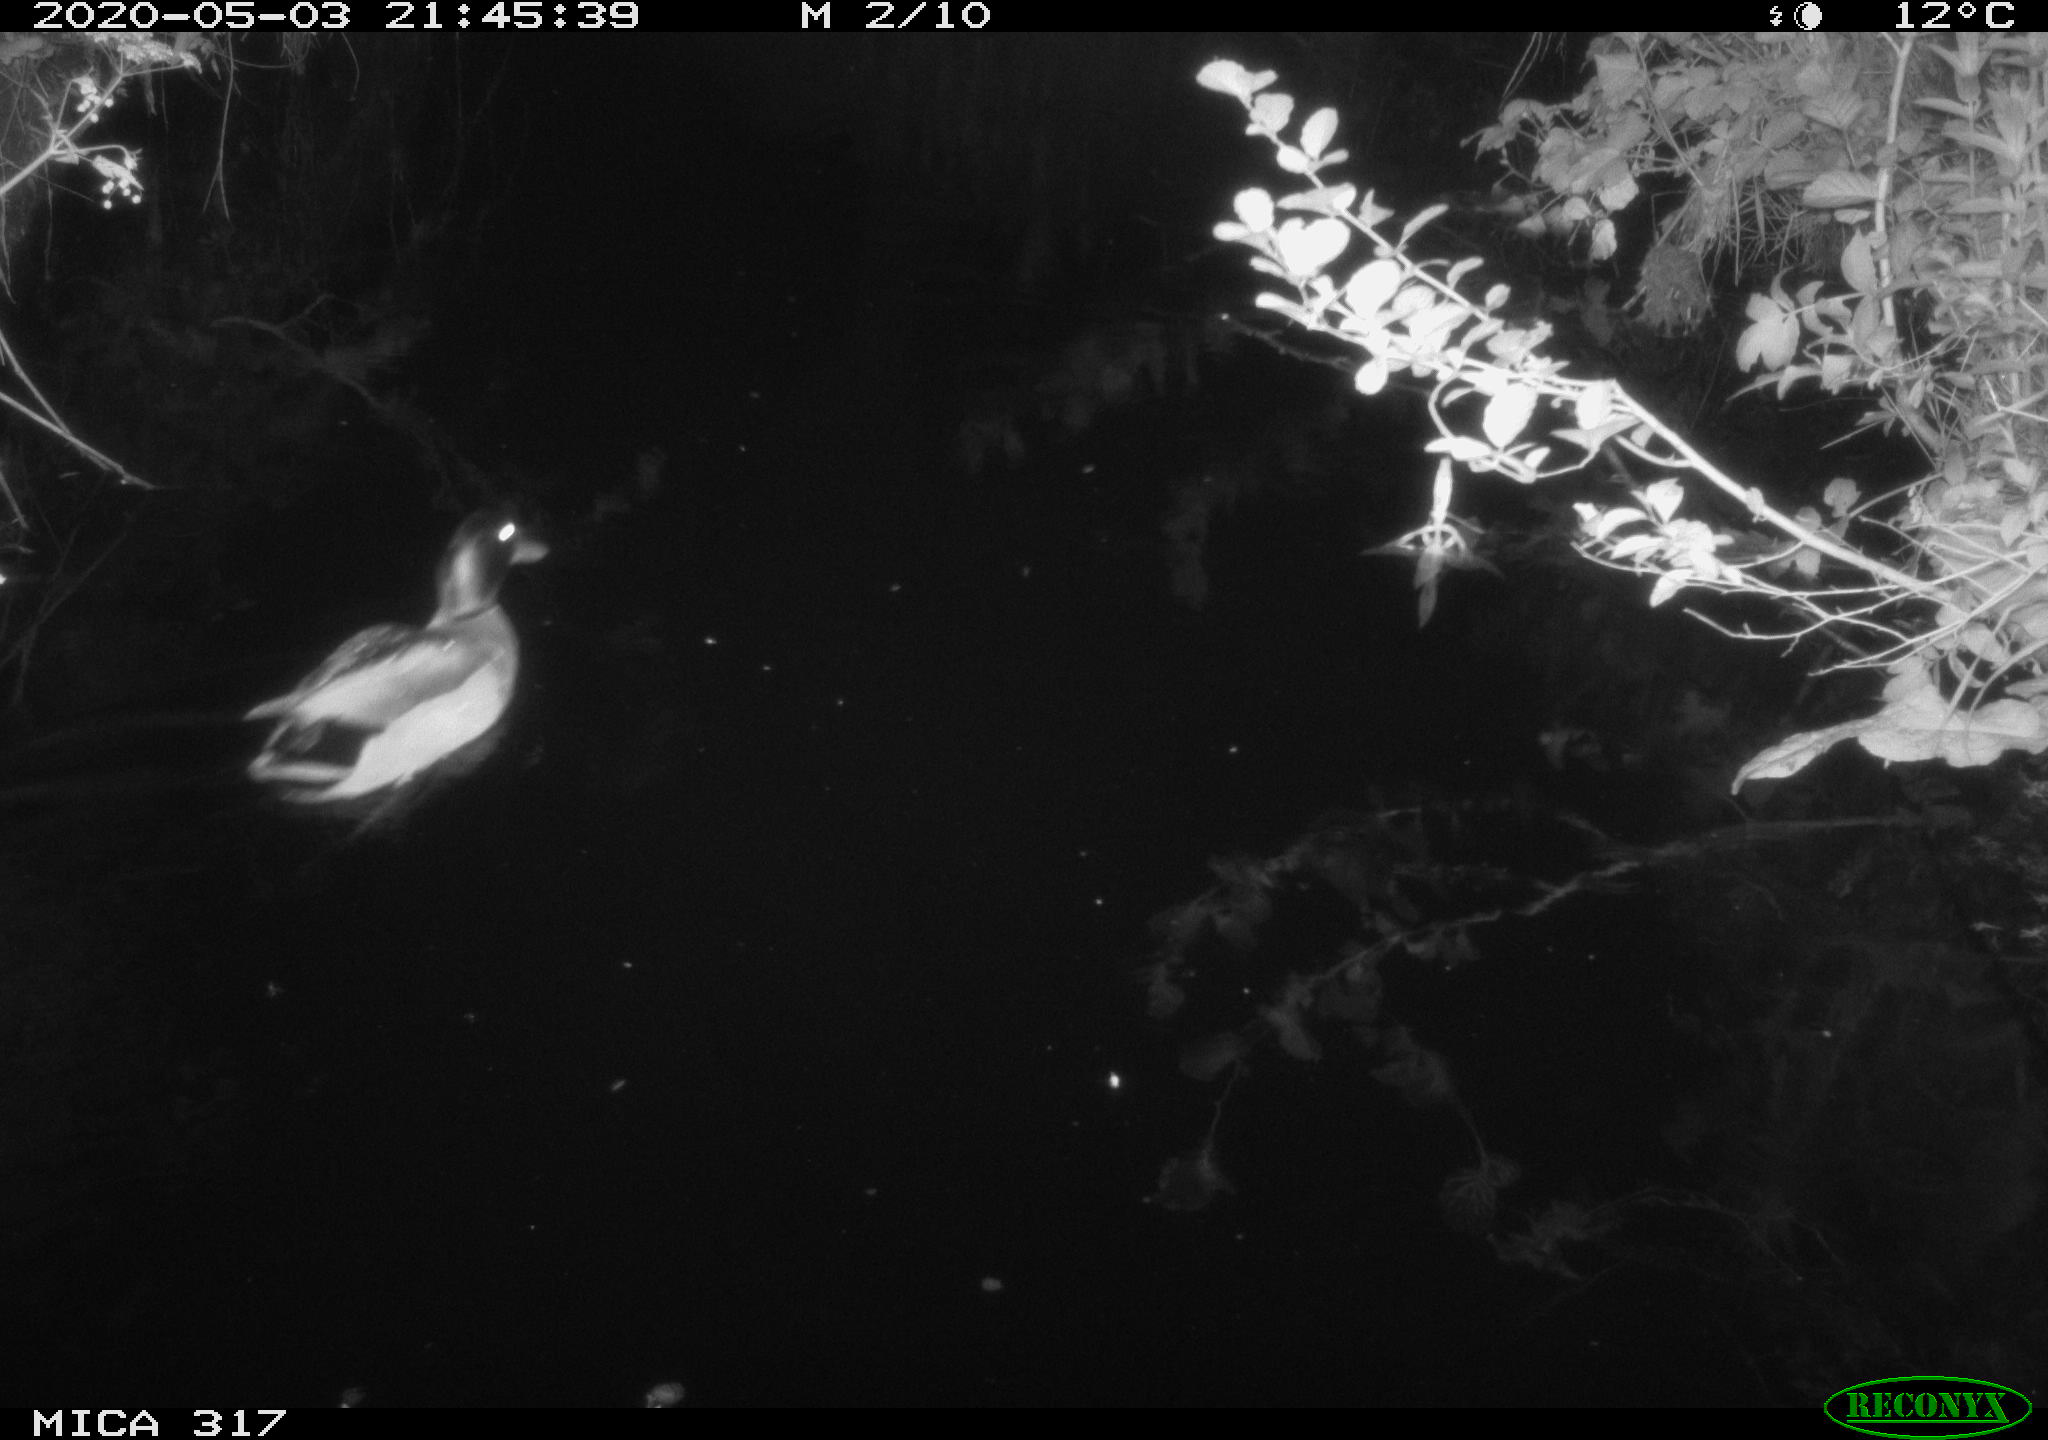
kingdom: Animalia
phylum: Chordata
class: Aves
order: Anseriformes
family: Anatidae
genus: Anas
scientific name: Anas platyrhynchos
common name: Mallard
